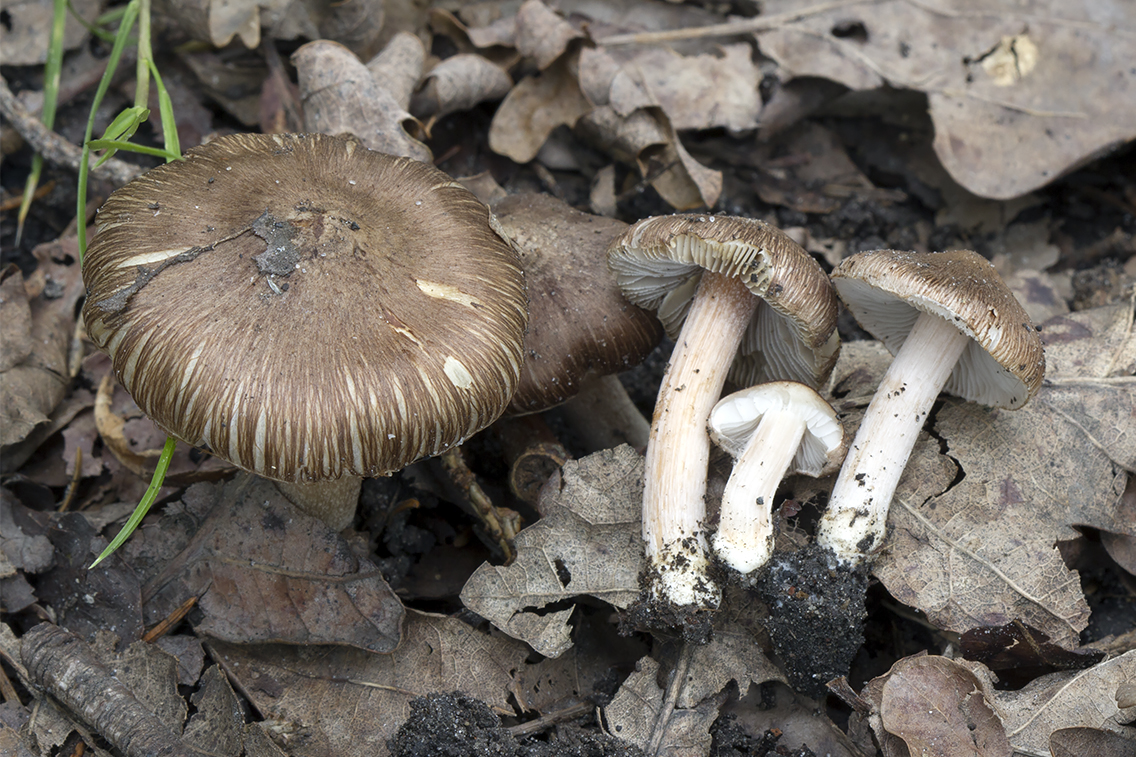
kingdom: Fungi
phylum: Basidiomycota
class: Agaricomycetes
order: Agaricales
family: Inocybaceae
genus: Inocybe
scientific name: Inocybe griseovelata
